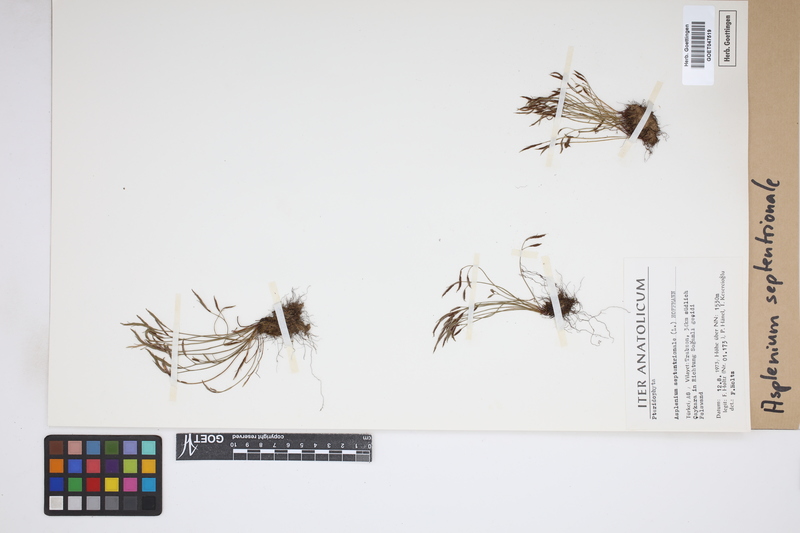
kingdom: Plantae
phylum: Tracheophyta
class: Polypodiopsida
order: Polypodiales
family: Aspleniaceae
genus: Asplenium
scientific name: Asplenium septentrionale
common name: Forked spleenwort
